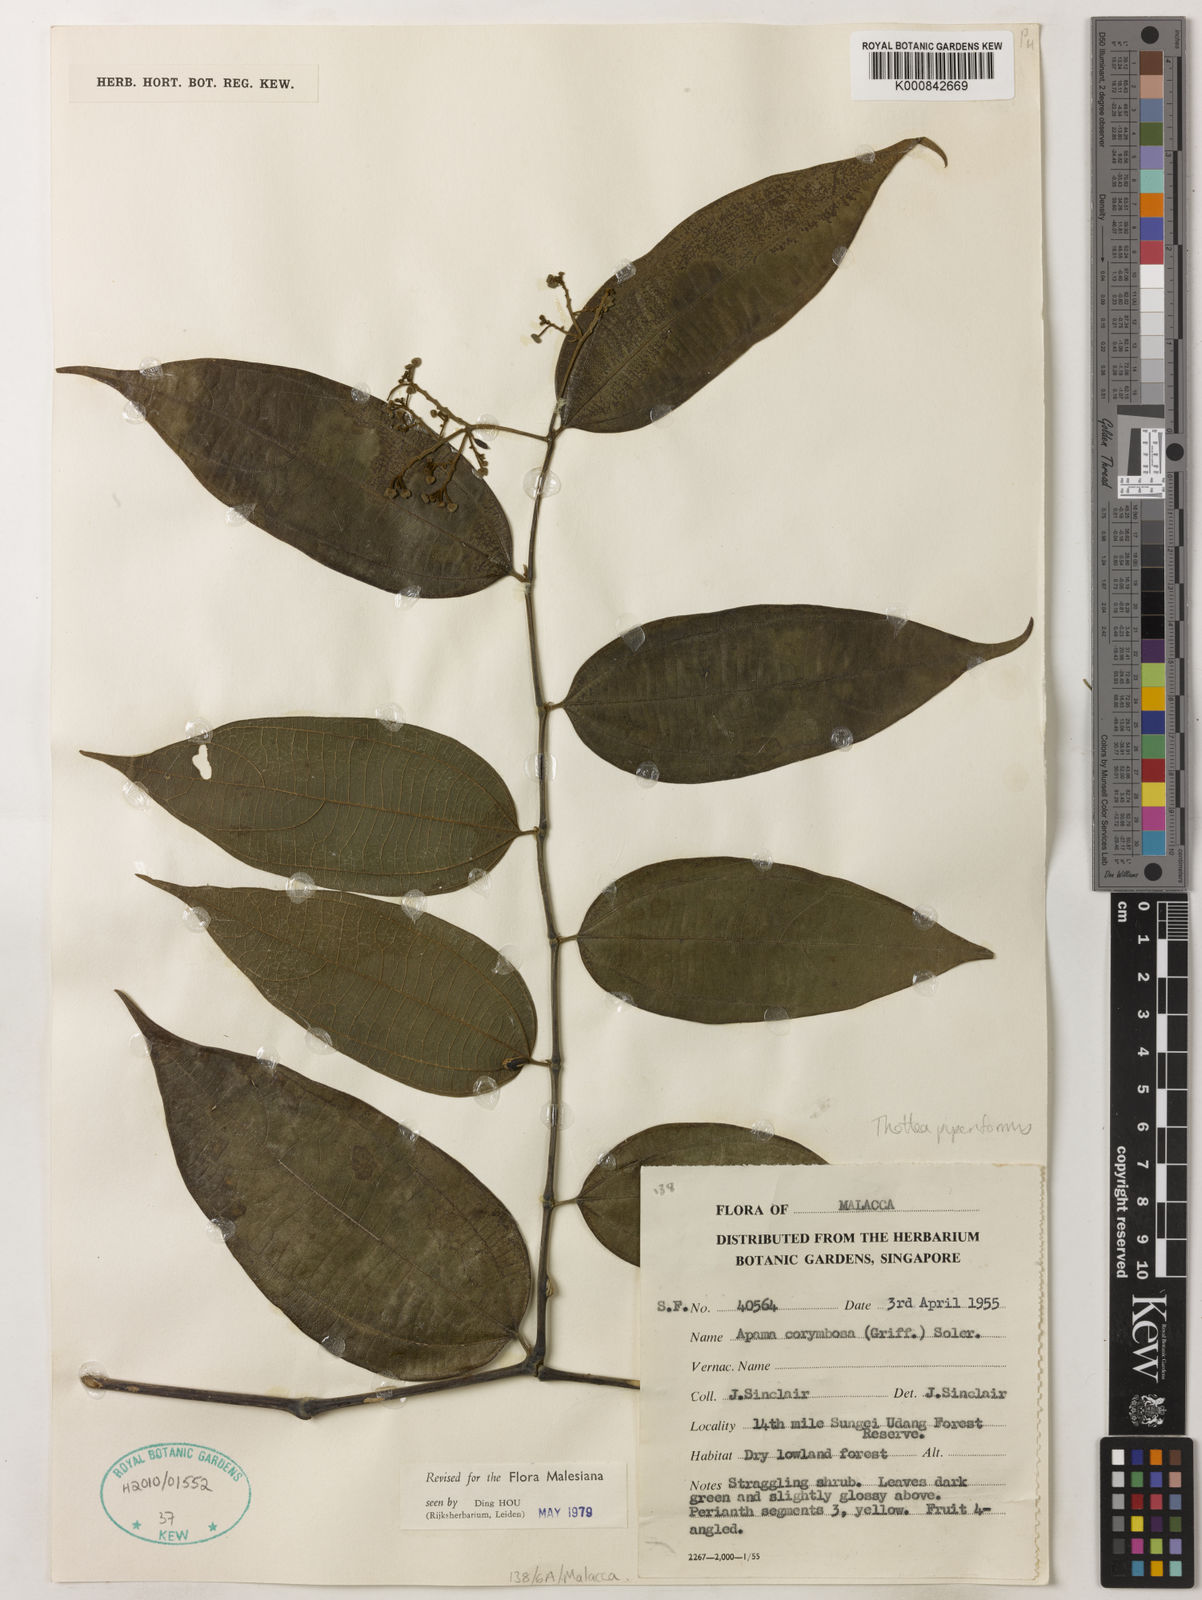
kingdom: Plantae
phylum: Tracheophyta
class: Magnoliopsida
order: Piperales
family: Aristolochiaceae
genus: Thottea
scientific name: Thottea piperiformis
